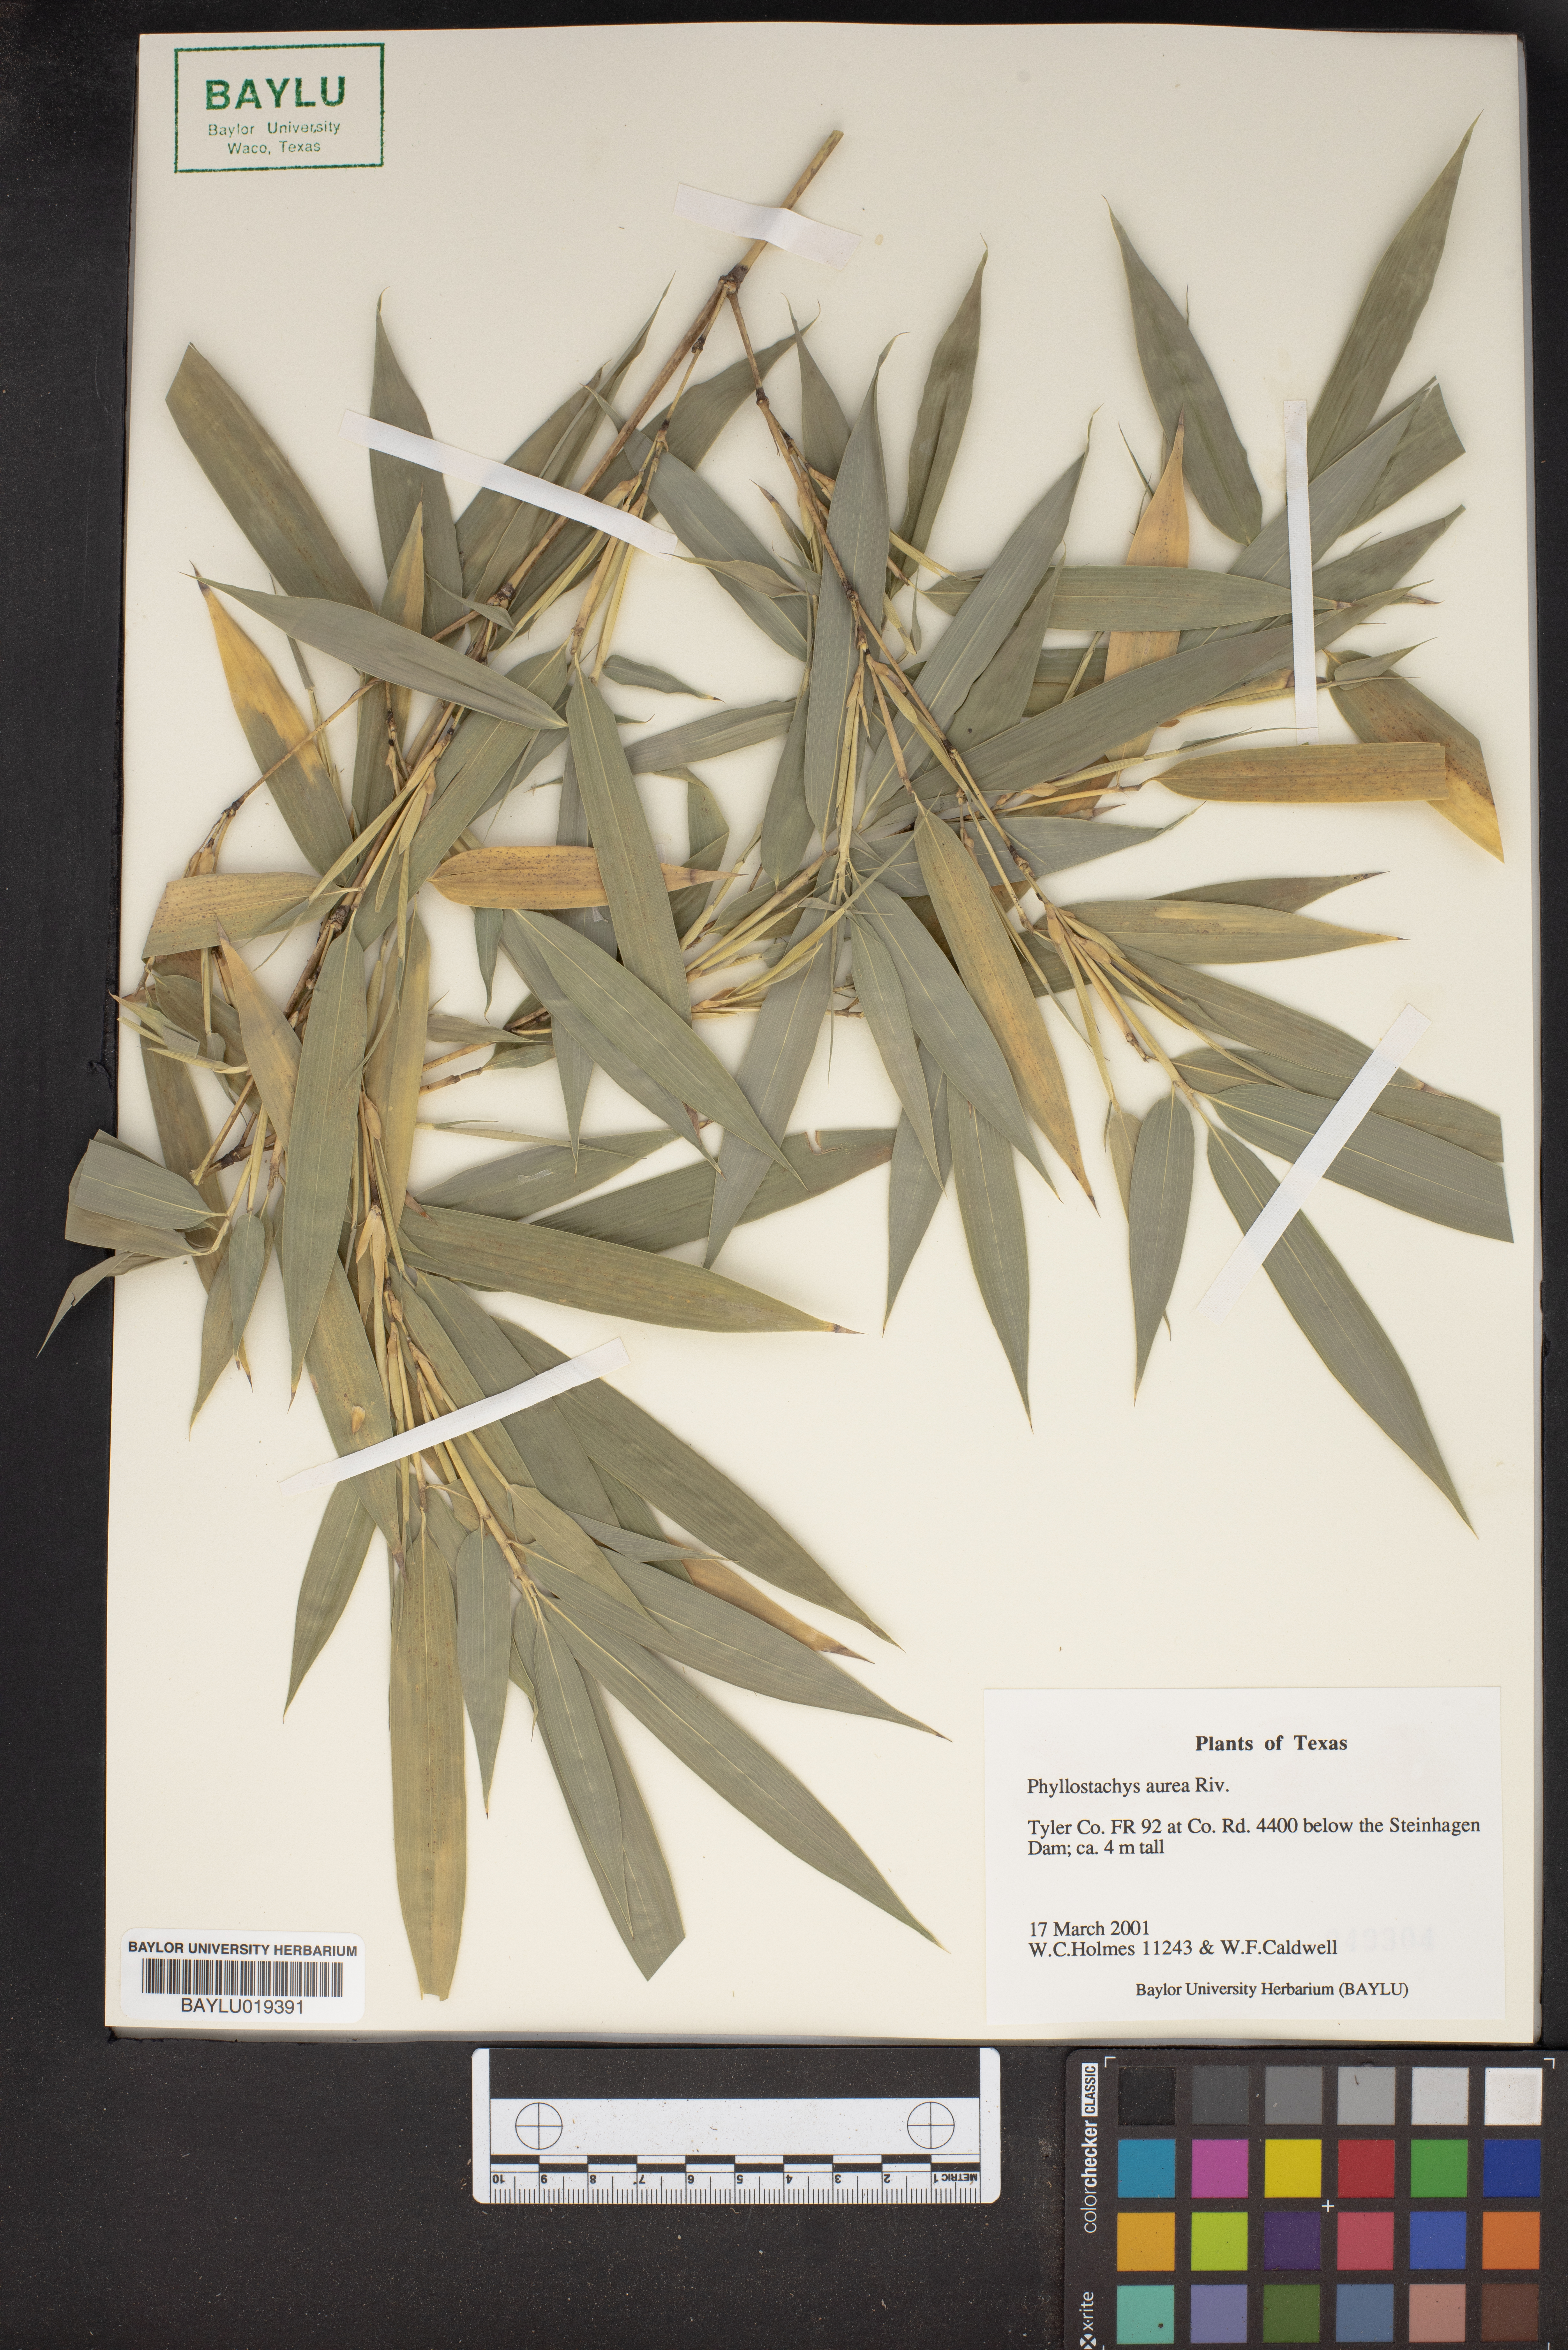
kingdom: Plantae
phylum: Tracheophyta
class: Liliopsida
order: Poales
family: Poaceae
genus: Phyllostachys
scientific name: Phyllostachys aurea
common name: Golden bamboo
